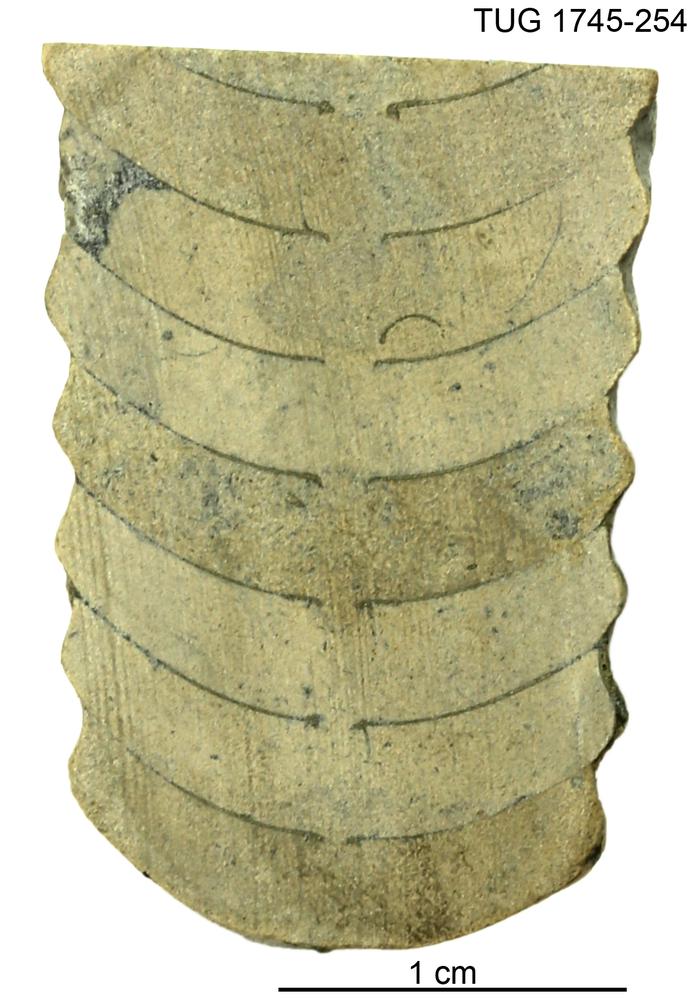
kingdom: Animalia
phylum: Mollusca
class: Cephalopoda
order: Nautilida
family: Nautilidae
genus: Dawsonoceras
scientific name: Dawsonoceras
